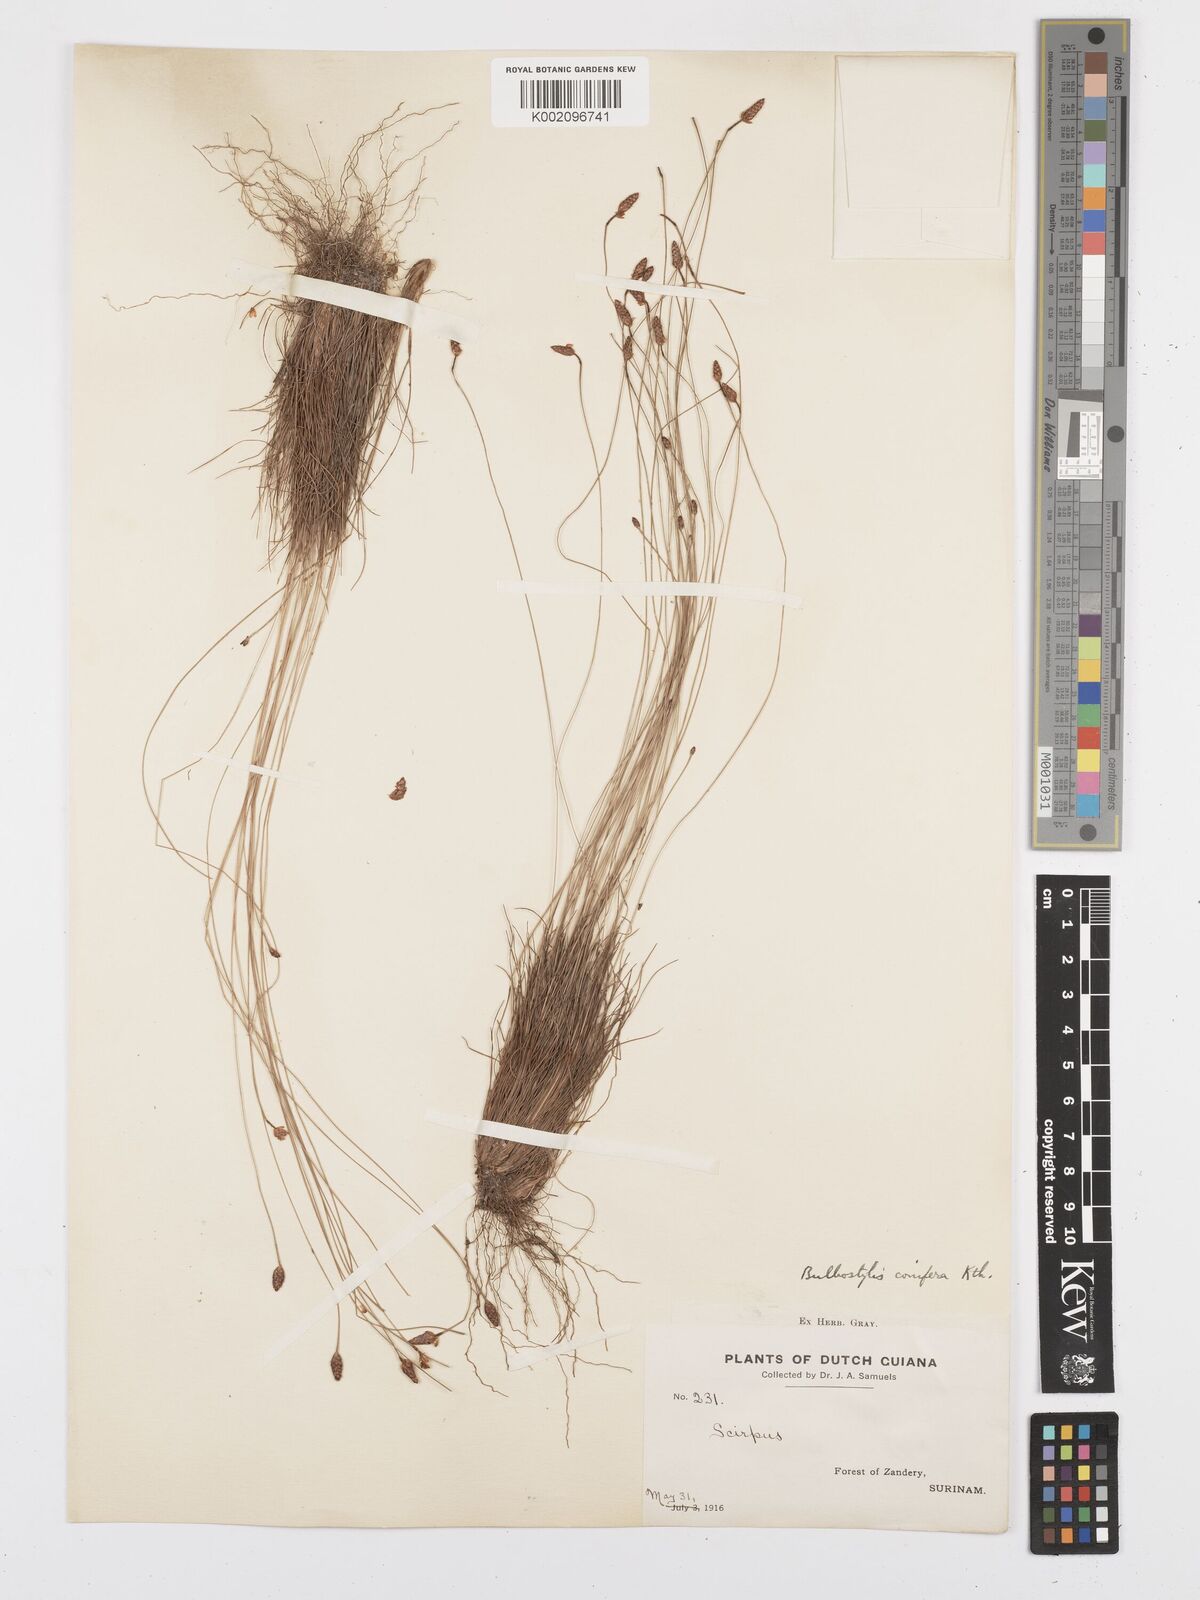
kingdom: Plantae
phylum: Tracheophyta
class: Liliopsida
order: Poales
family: Cyperaceae
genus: Bulbostylis
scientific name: Bulbostylis conifera
